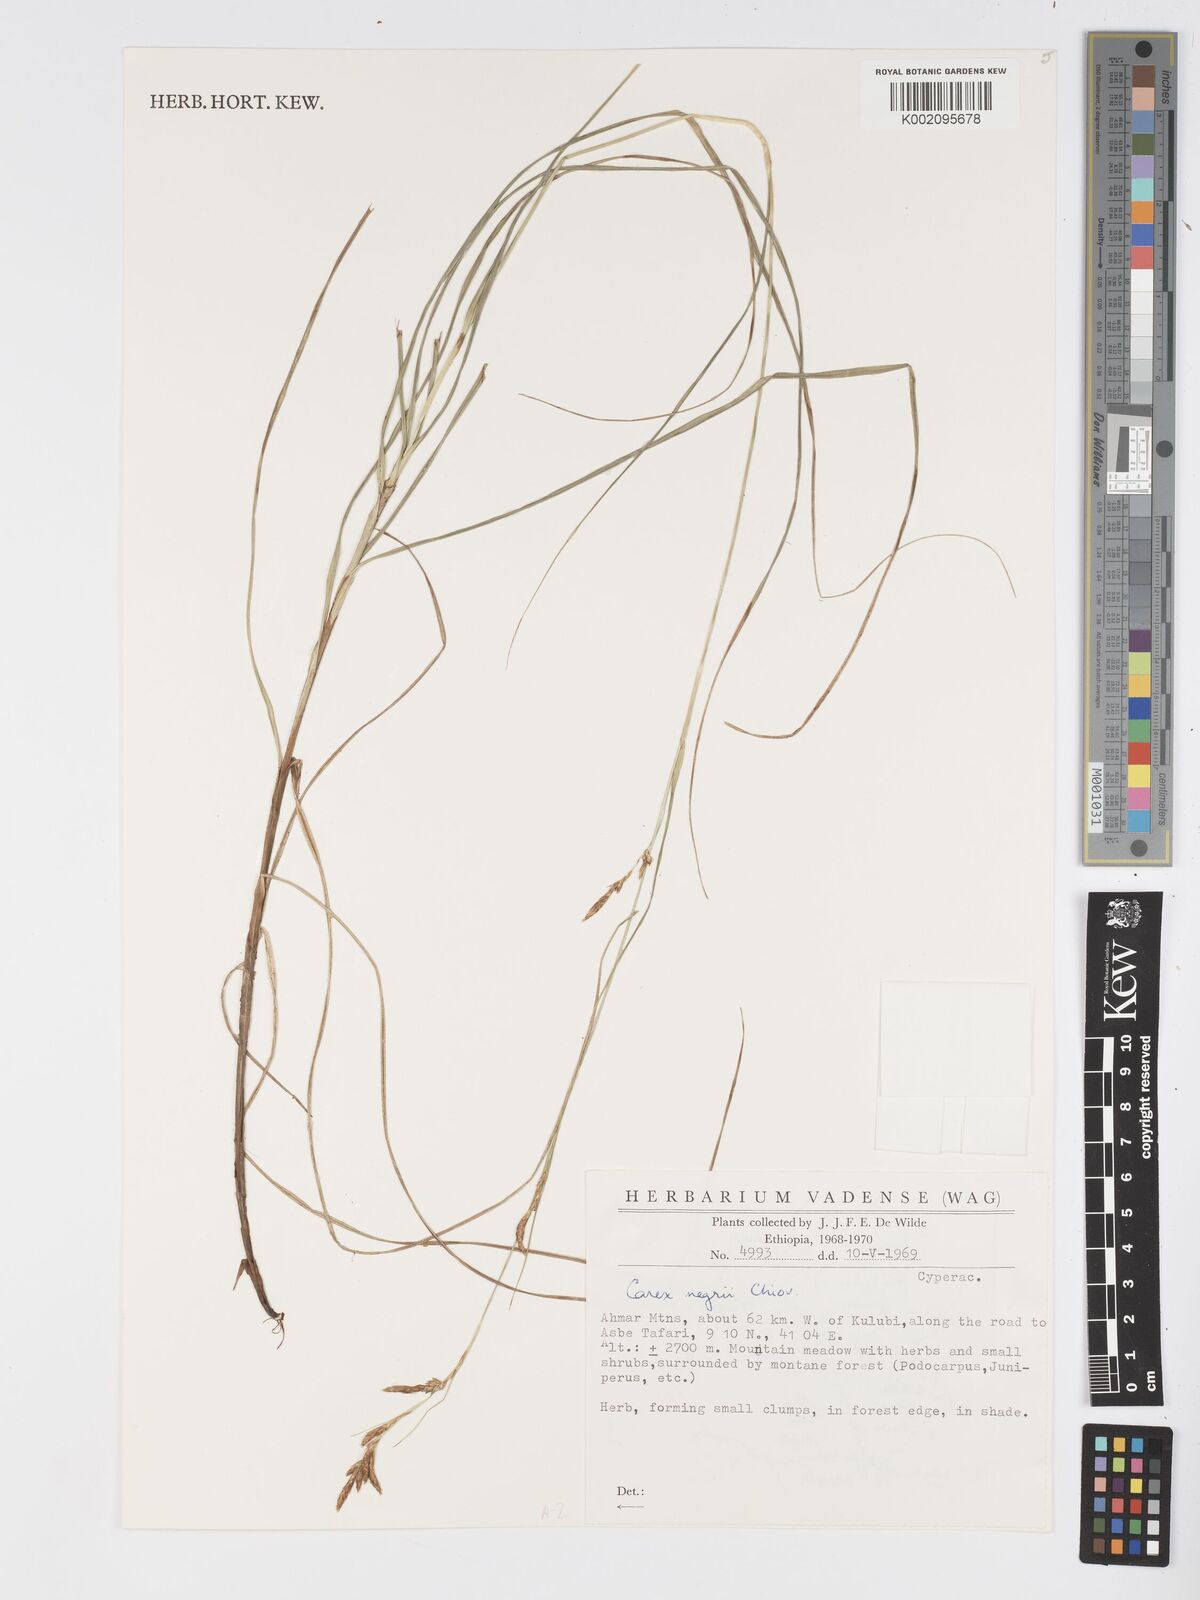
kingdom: Plantae
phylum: Tracheophyta
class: Liliopsida
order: Poales
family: Cyperaceae
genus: Carex
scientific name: Carex negrii
